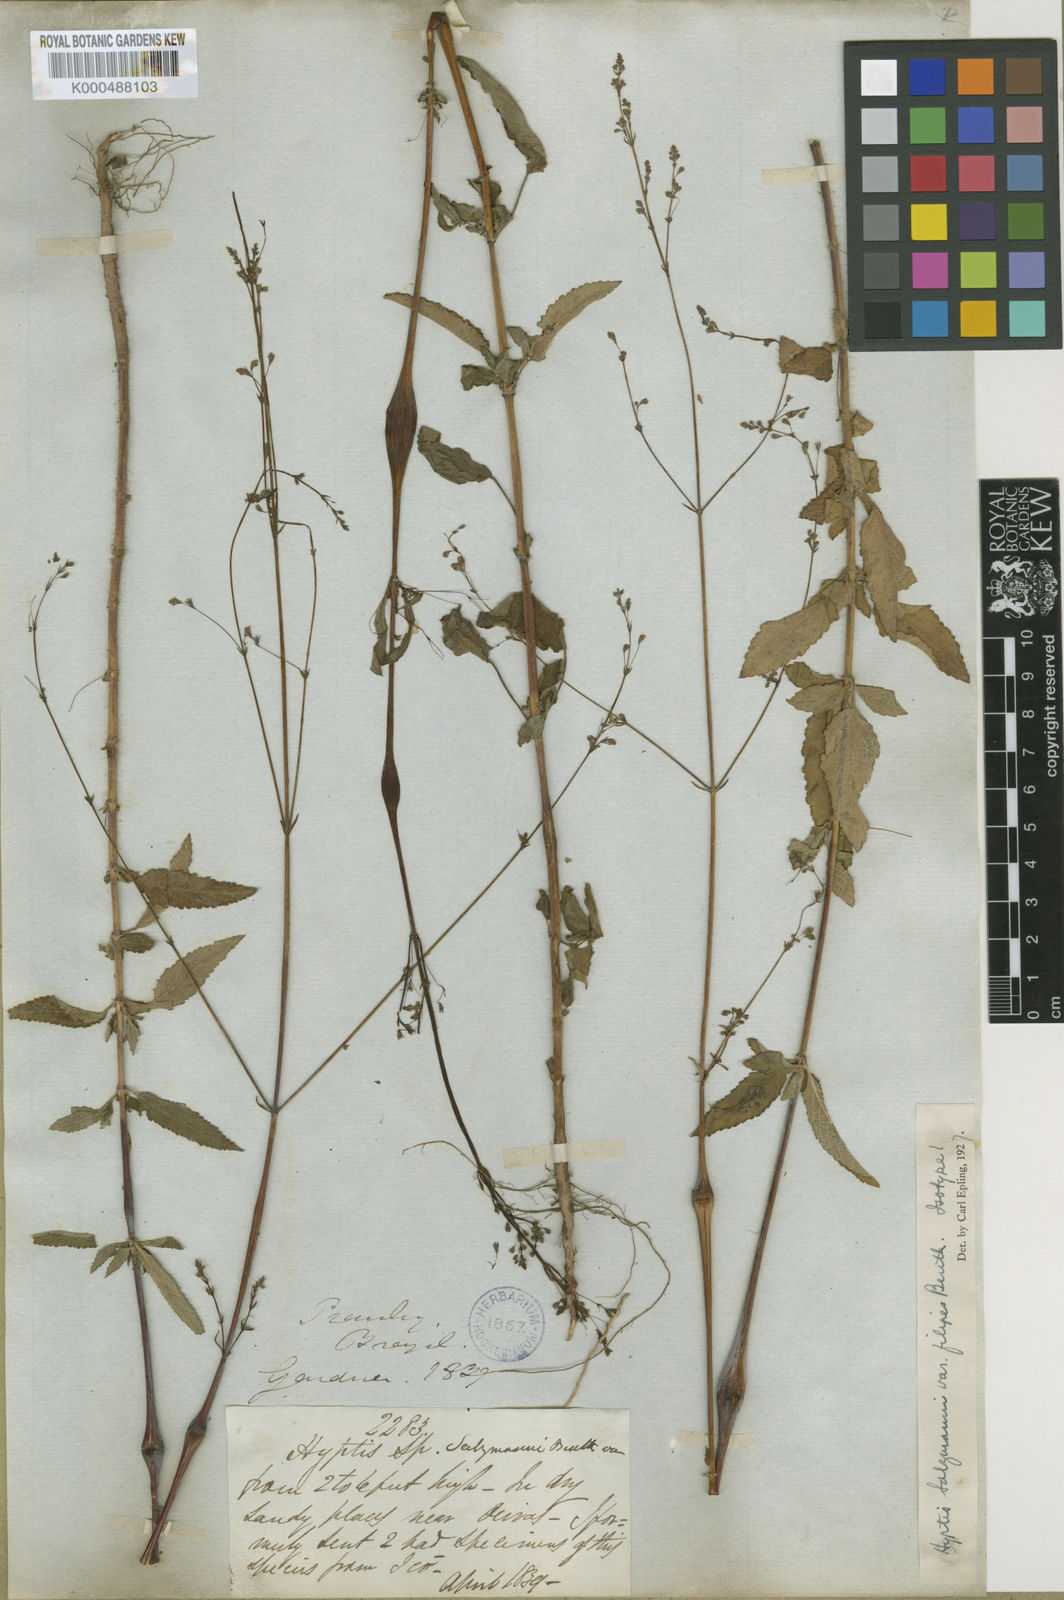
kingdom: Plantae
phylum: Tracheophyta
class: Magnoliopsida
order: Lamiales
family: Lamiaceae
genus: Hypenia
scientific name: Hypenia salzmannii
